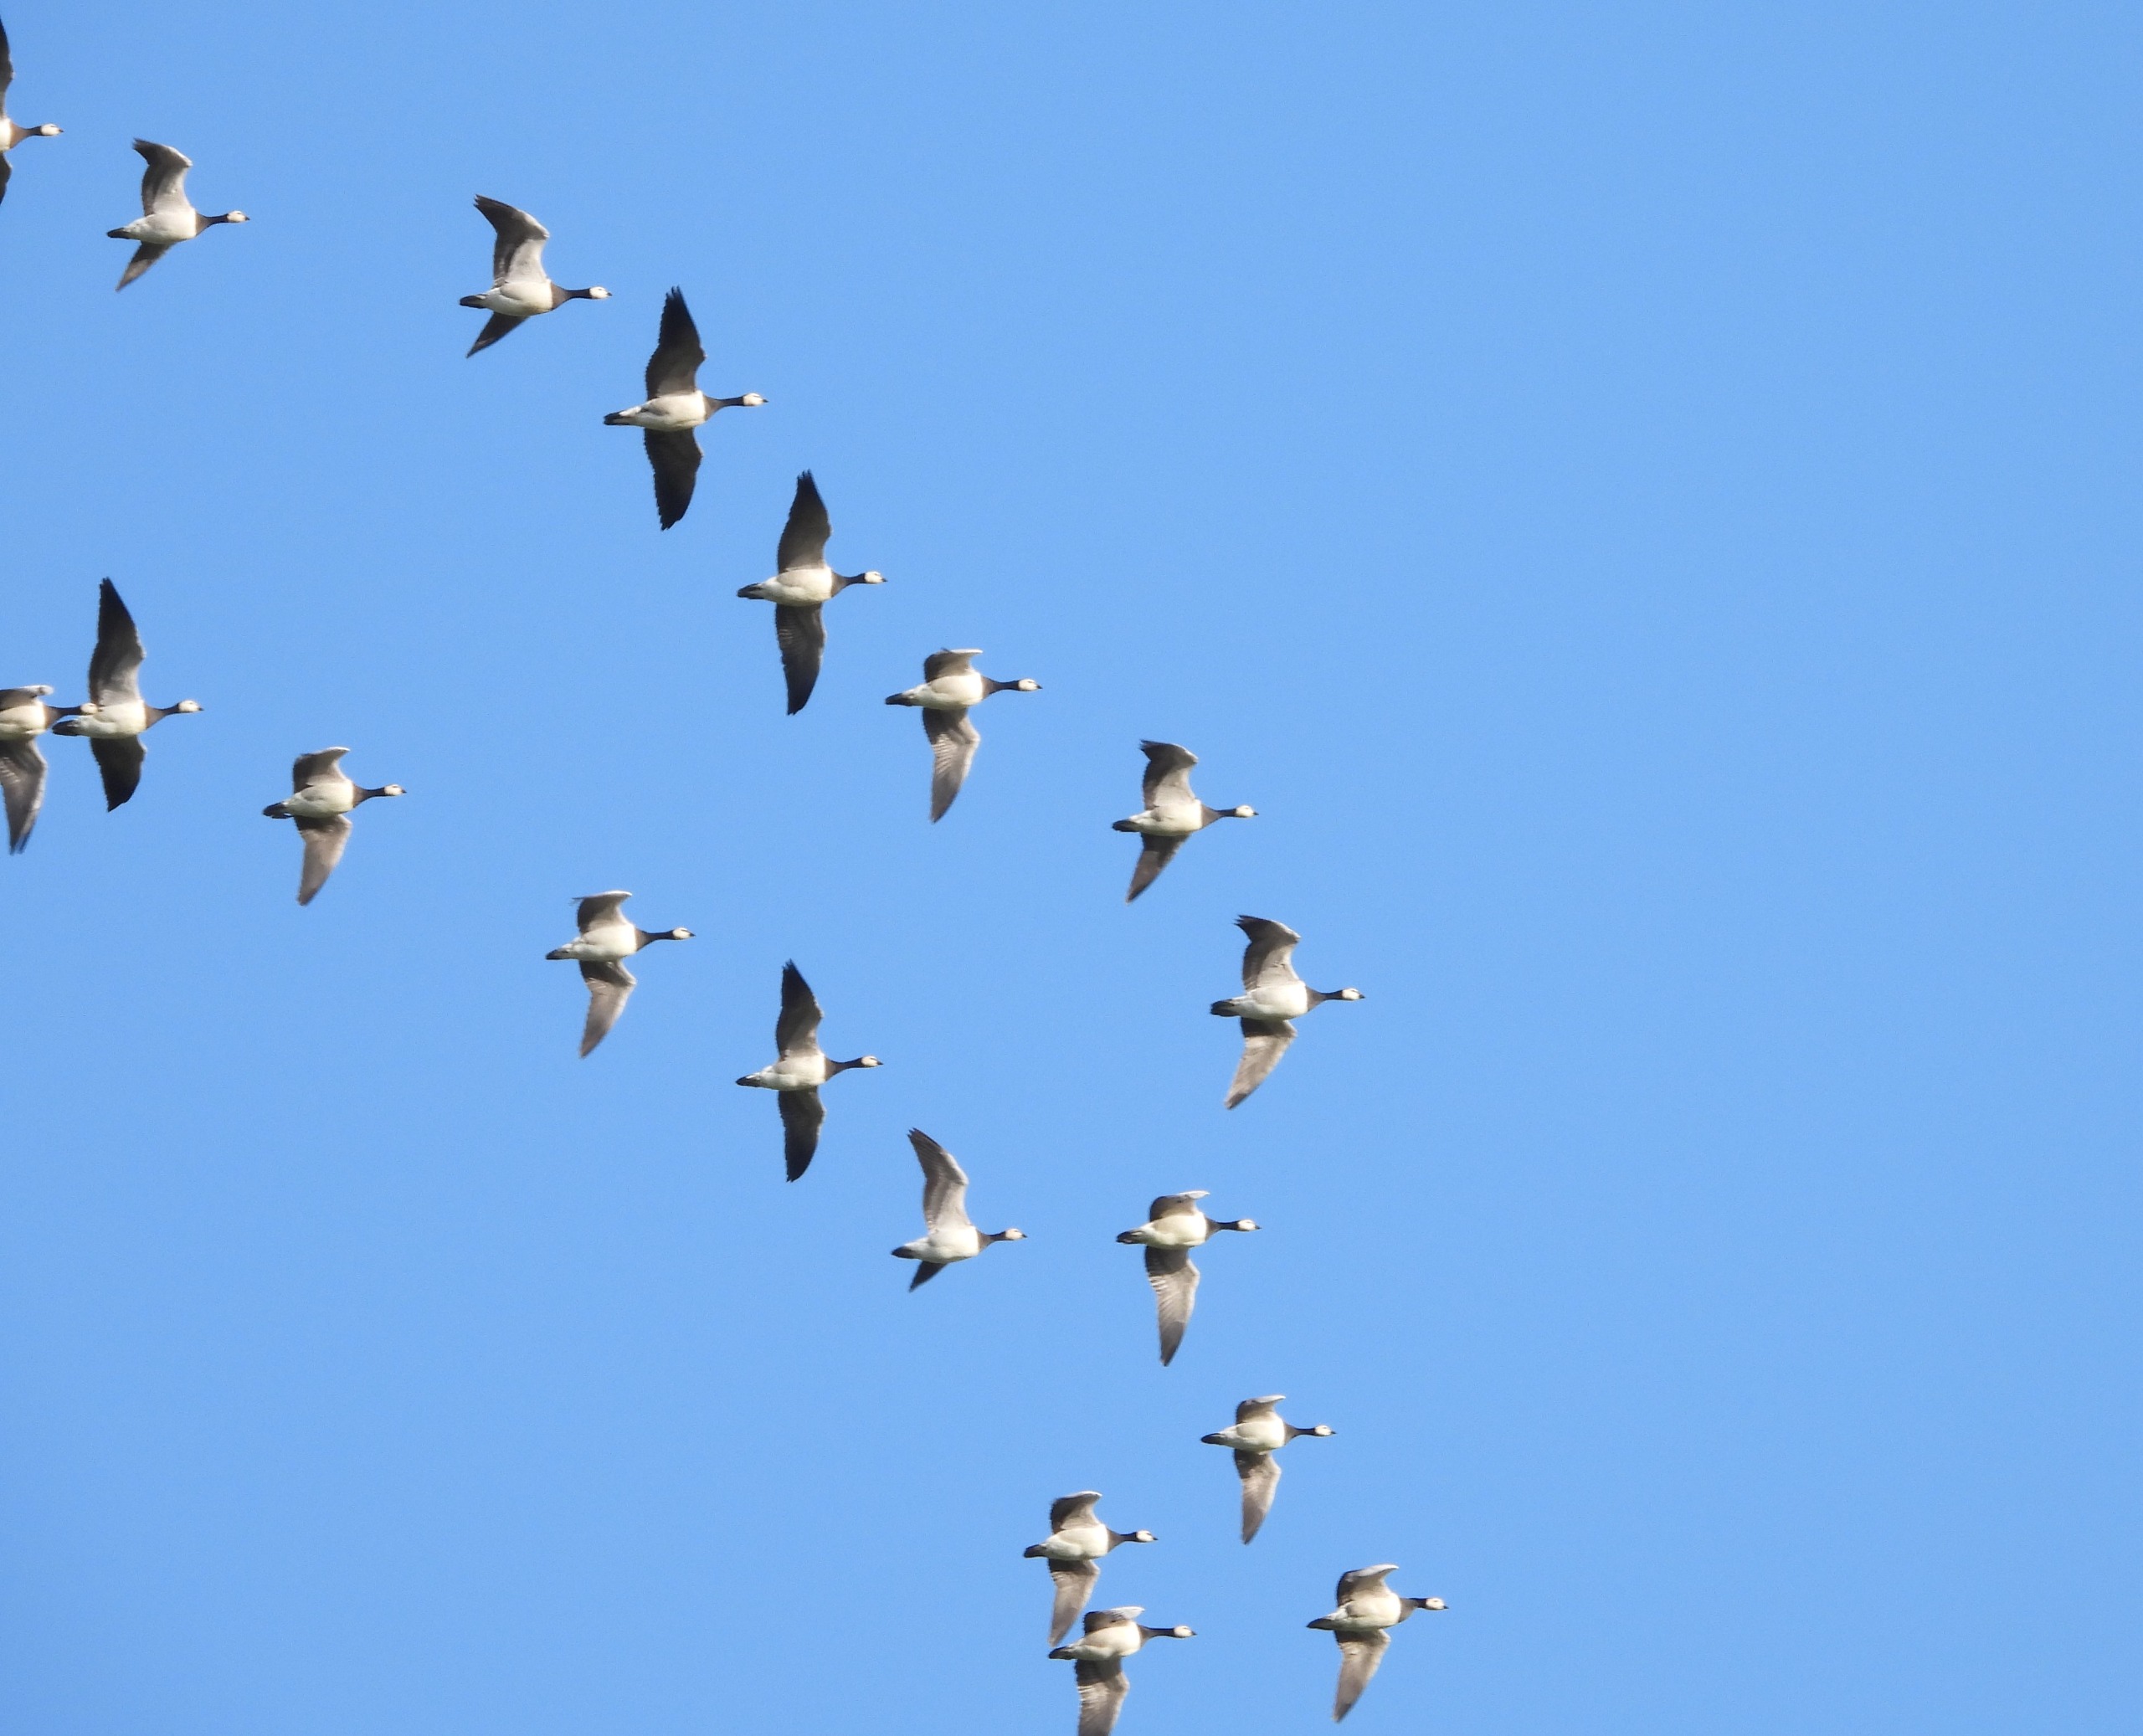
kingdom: Animalia
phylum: Chordata
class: Aves
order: Anseriformes
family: Anatidae
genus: Branta
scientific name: Branta leucopsis
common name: Bramgås
